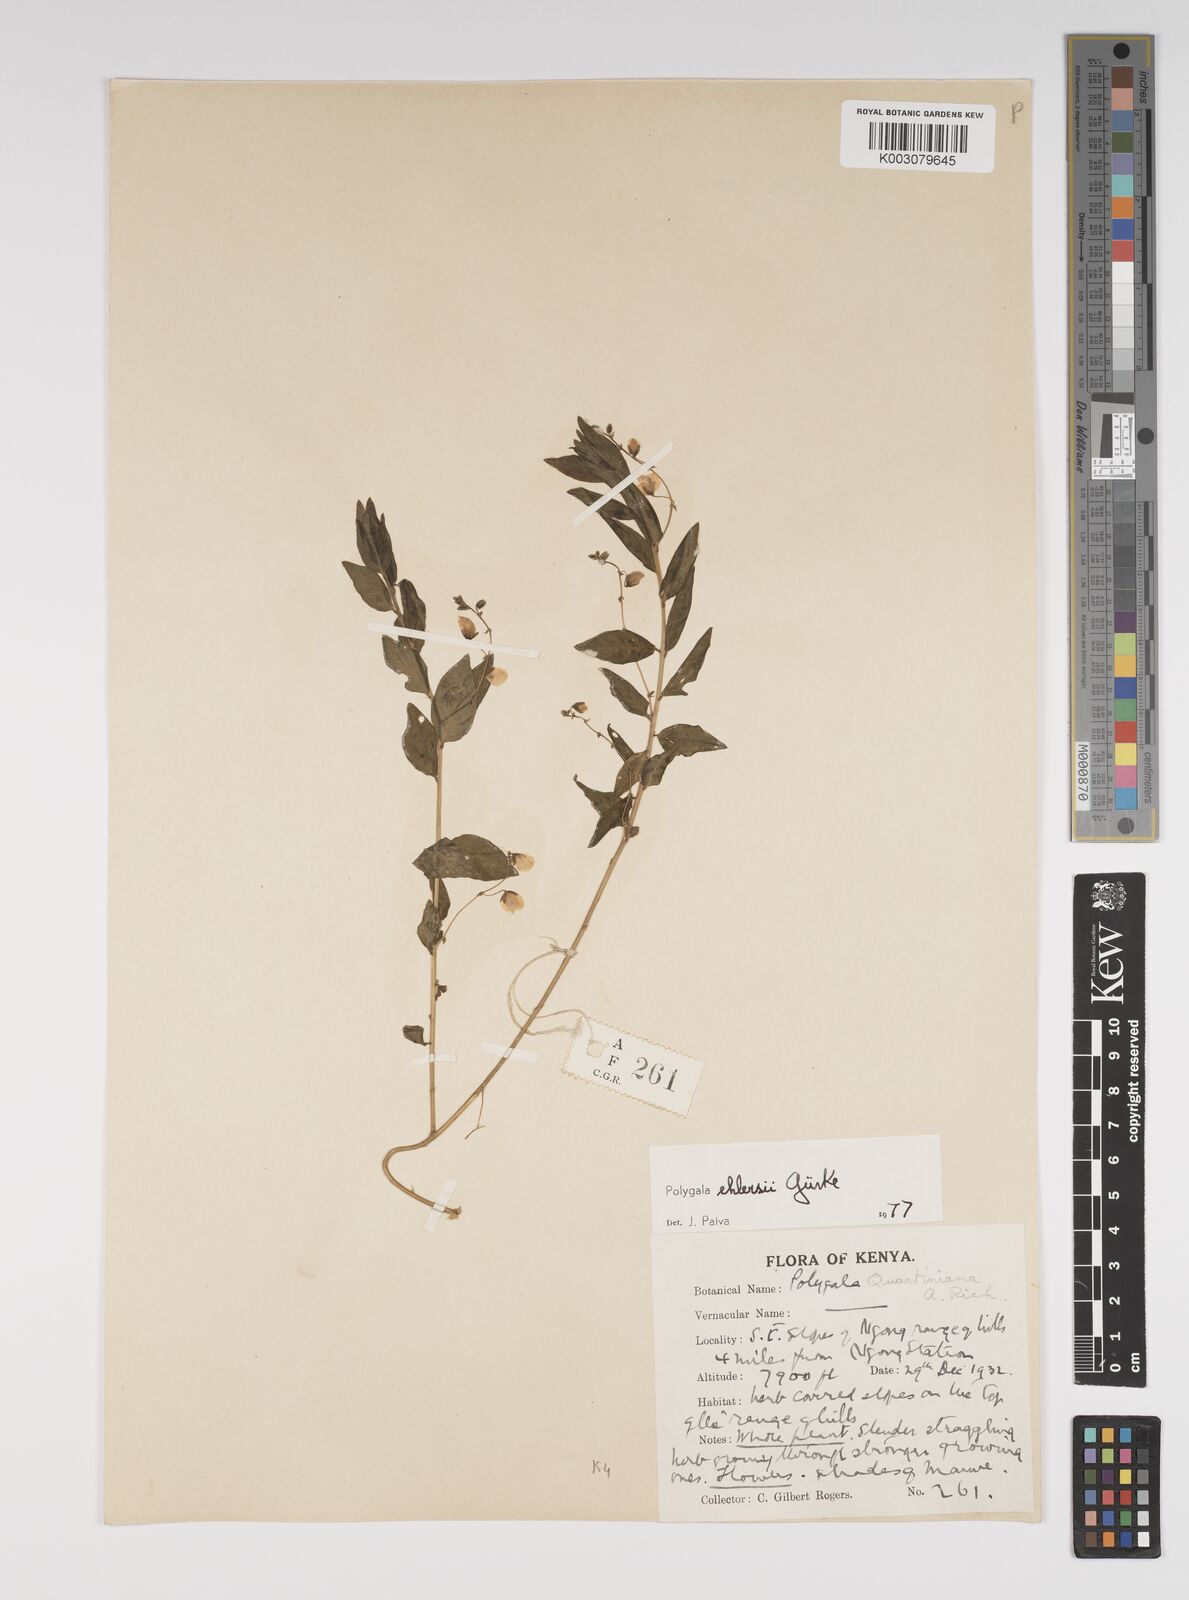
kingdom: Plantae
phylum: Tracheophyta
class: Magnoliopsida
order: Fabales
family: Polygalaceae
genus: Polygala
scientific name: Polygala ehlersii
